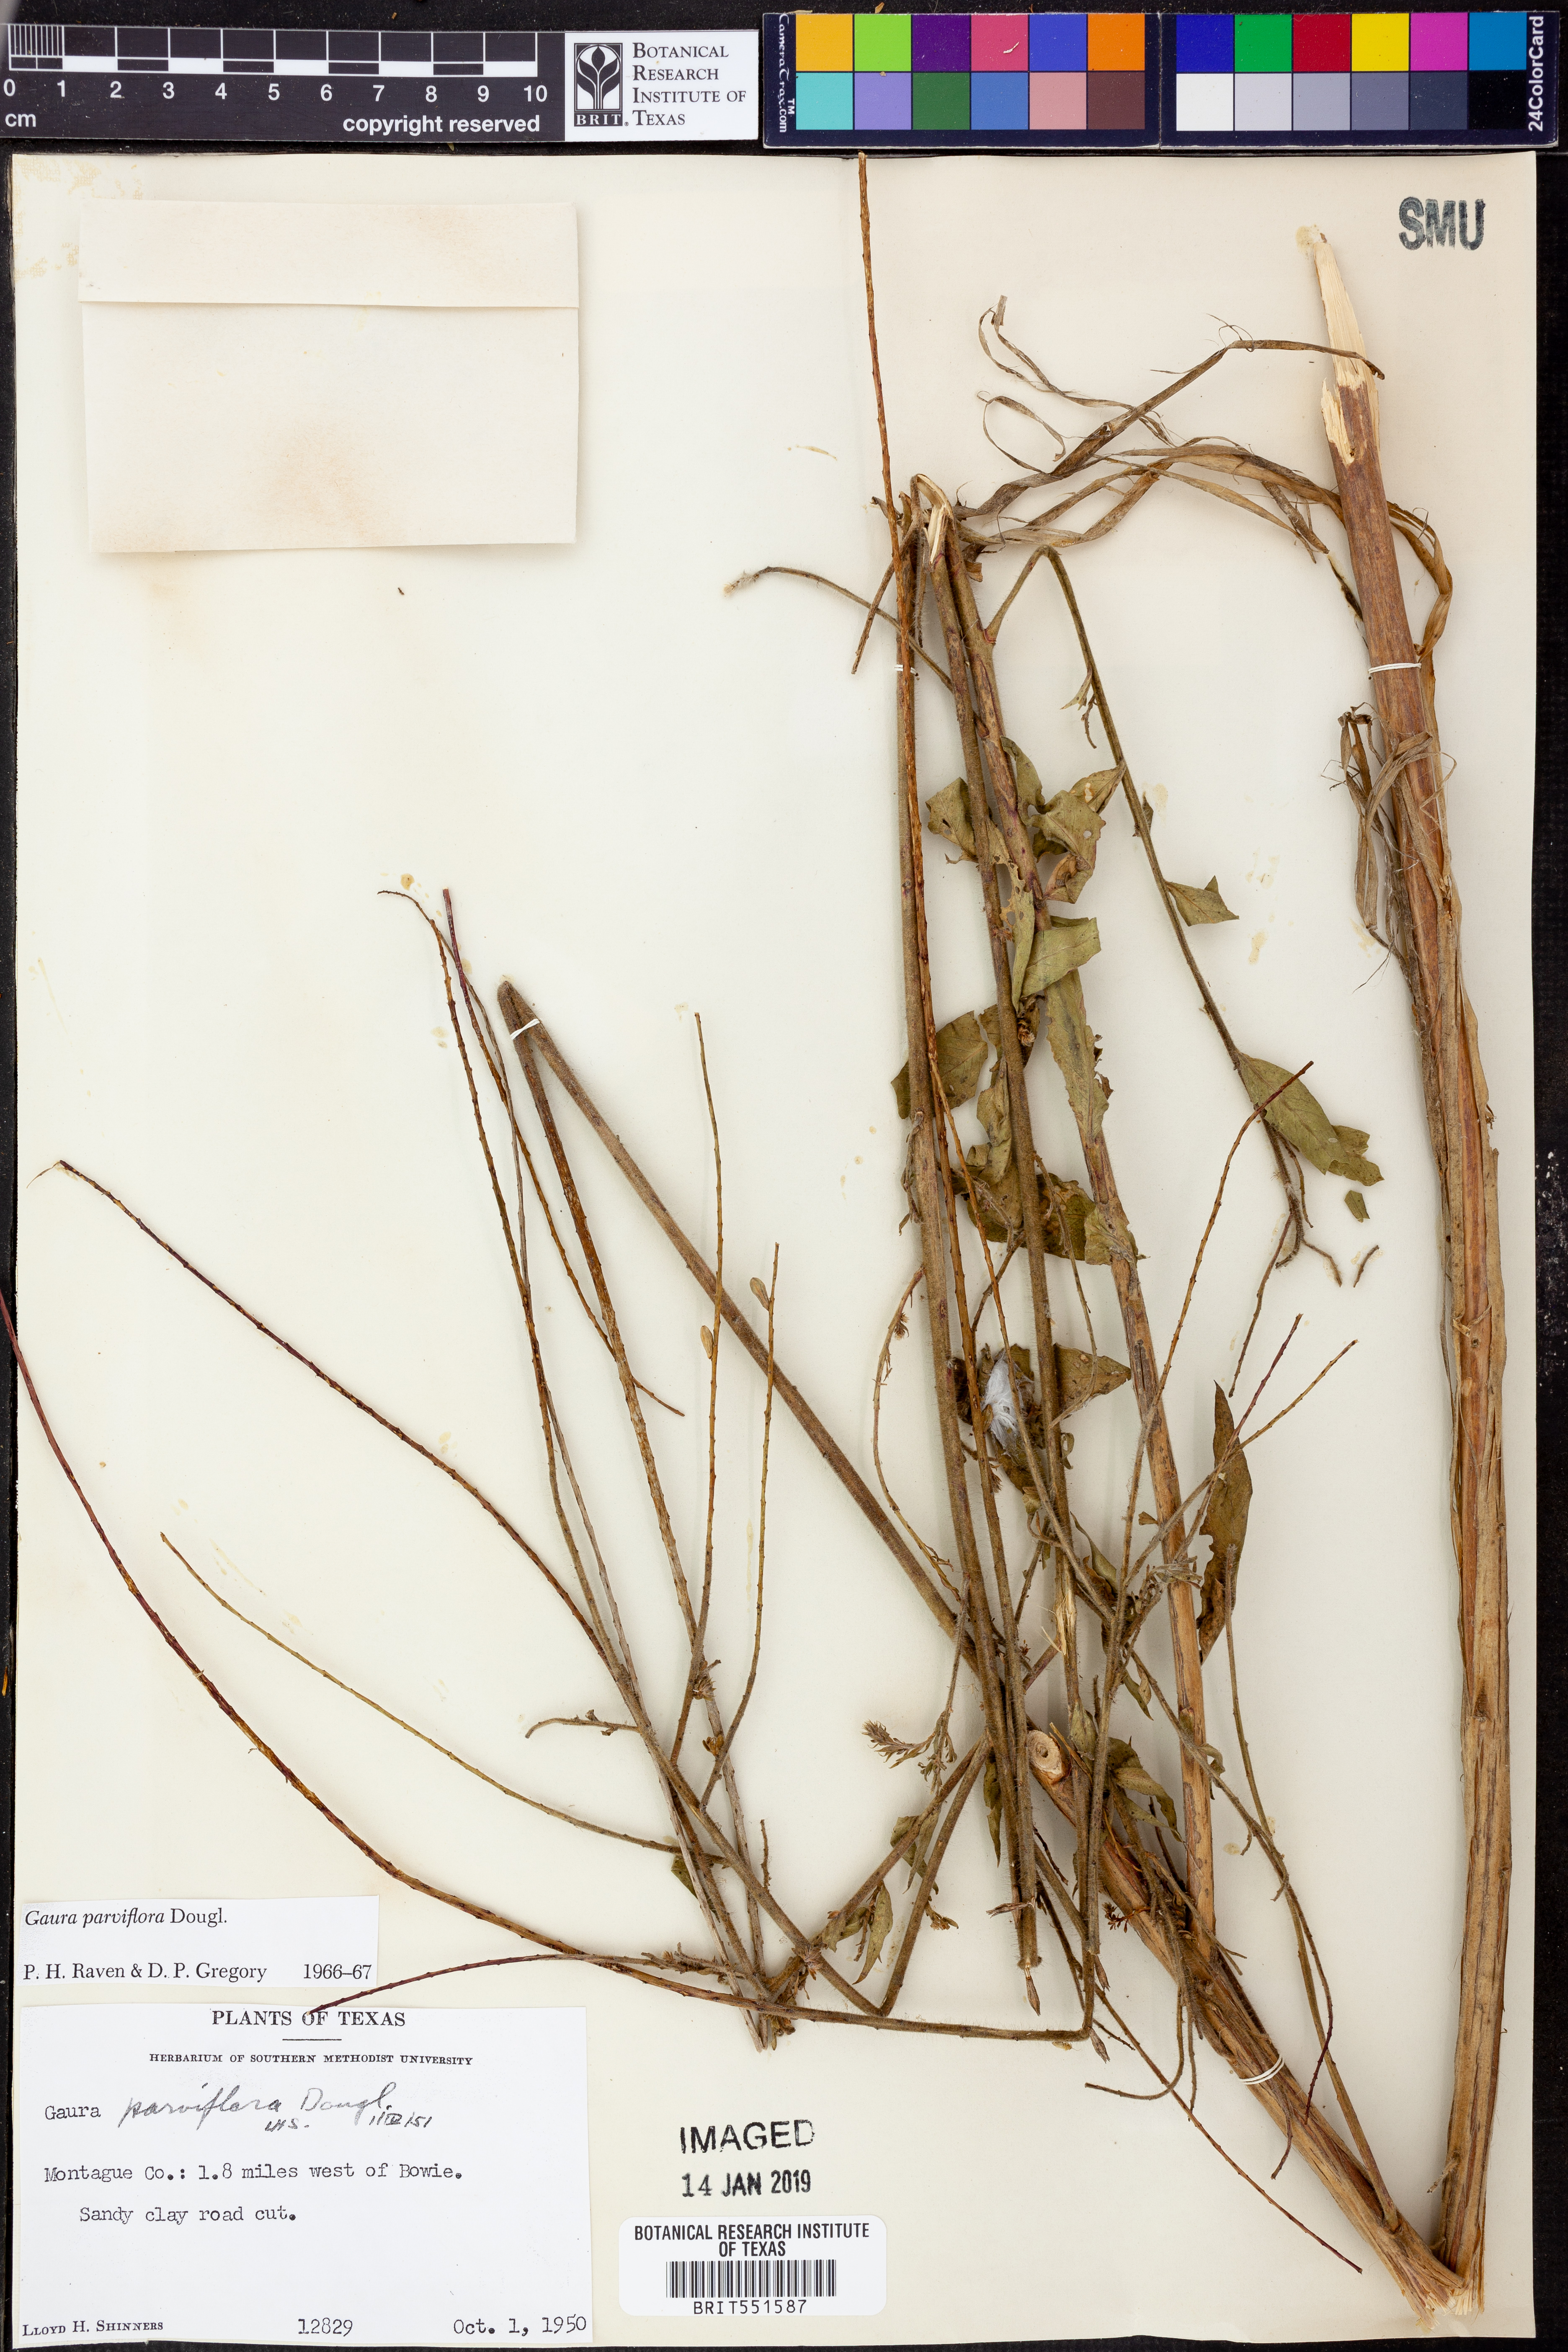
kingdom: Plantae
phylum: Tracheophyta
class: Magnoliopsida
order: Myrtales
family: Onagraceae
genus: Oenothera
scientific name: Oenothera curtiflora
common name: Velvetweed
